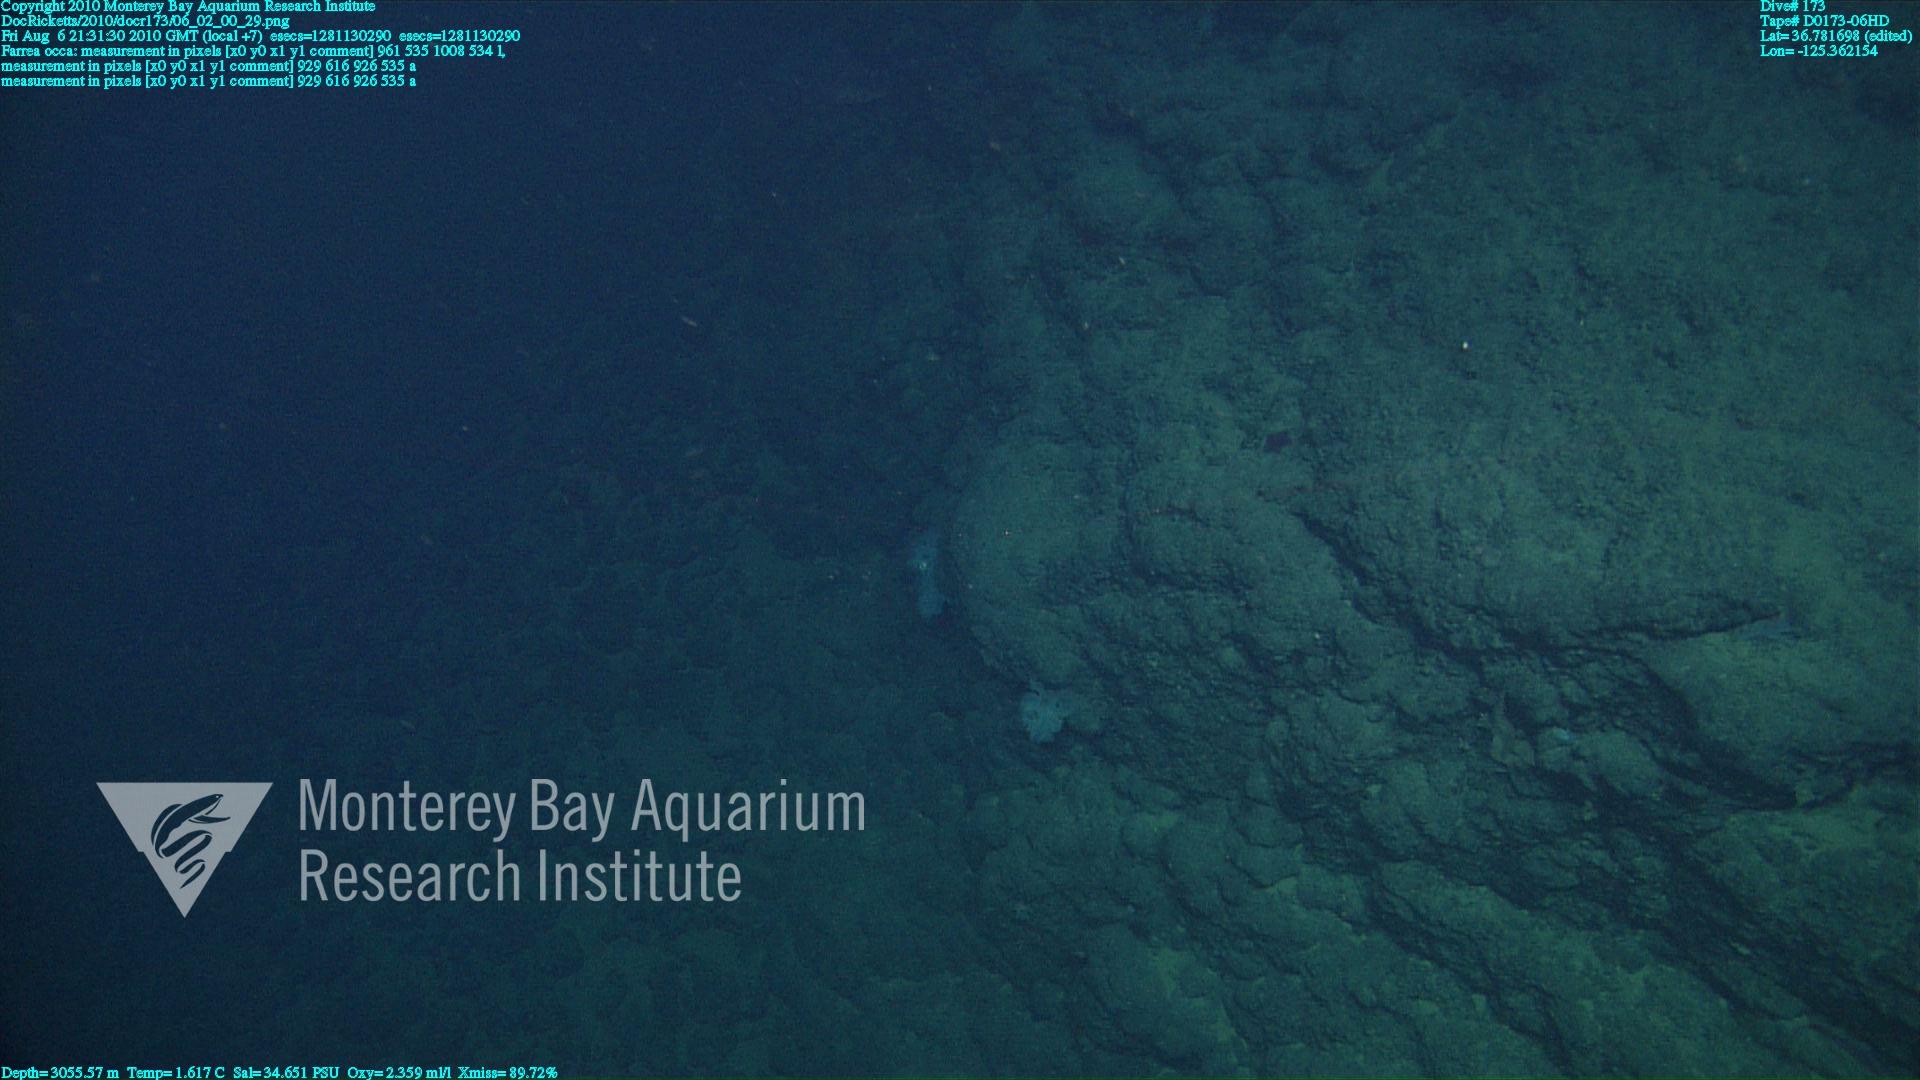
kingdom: Animalia
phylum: Porifera
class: Hexactinellida
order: Sceptrulophora
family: Farreidae
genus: Farrea
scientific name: Farrea occa
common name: Reversed glass sponge
